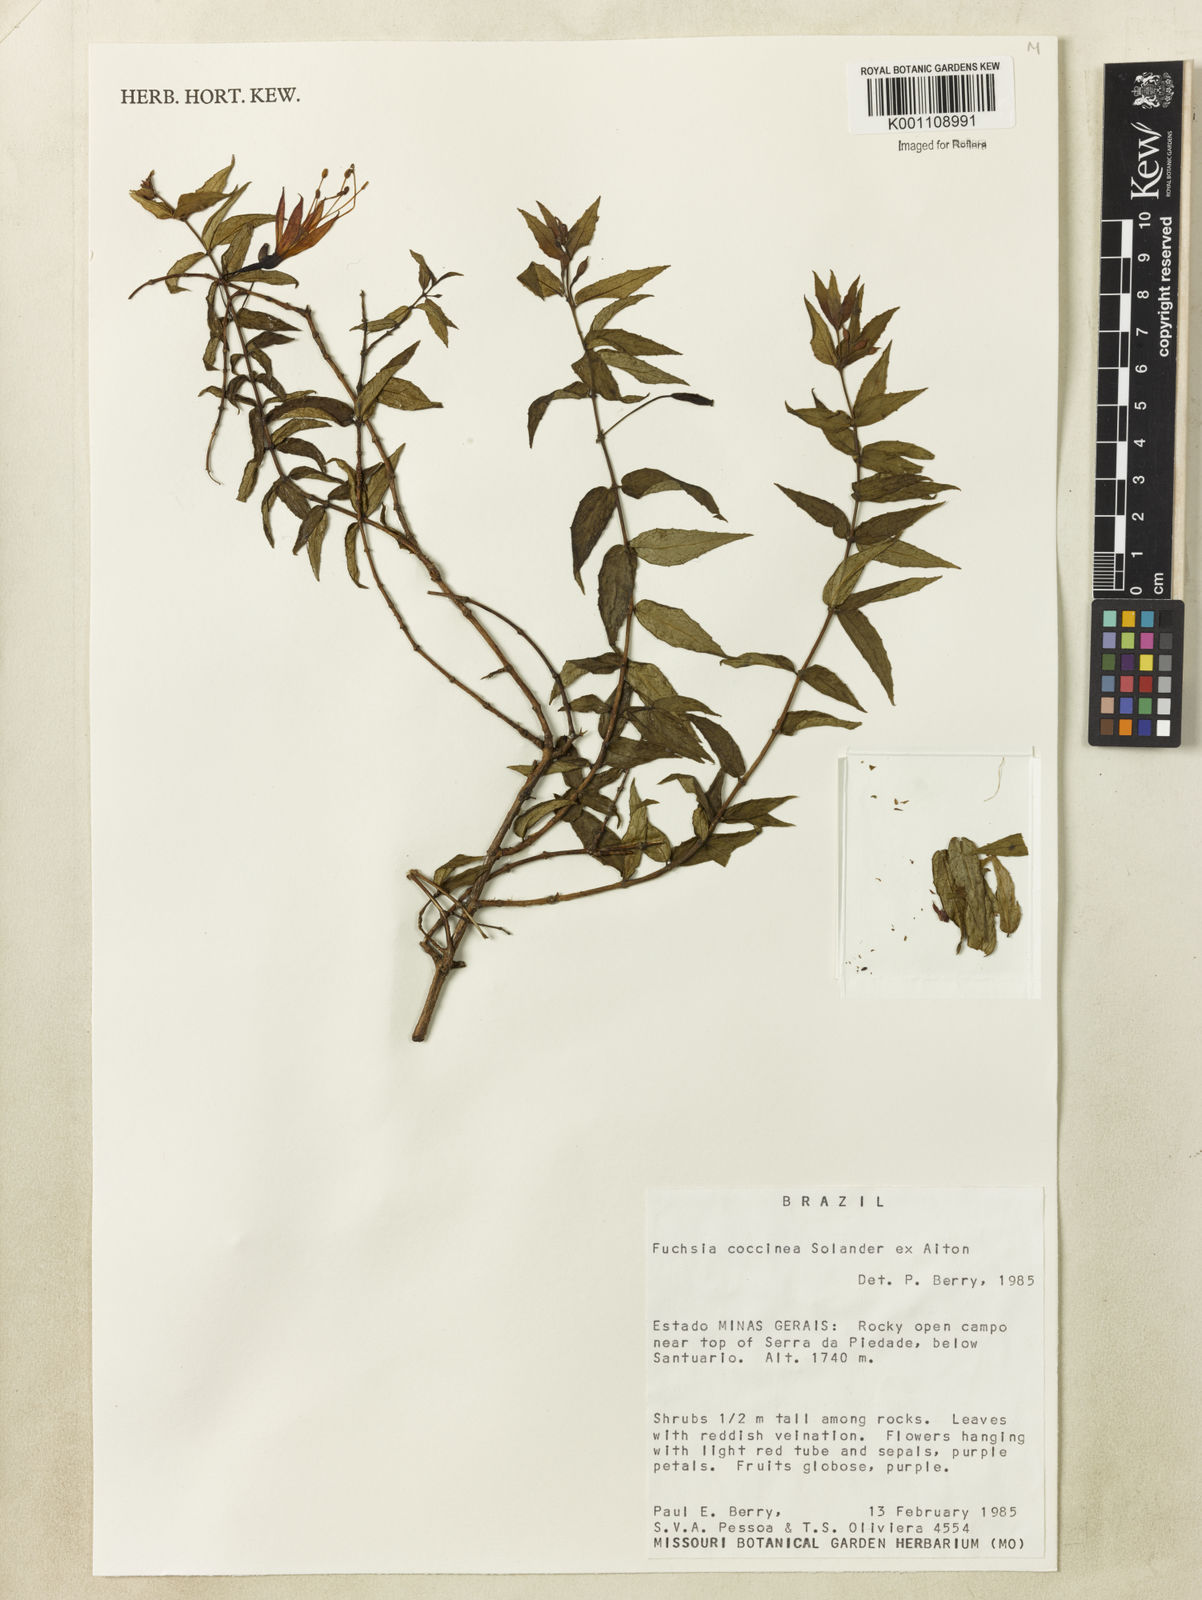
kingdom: Plantae
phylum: Tracheophyta
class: Magnoliopsida
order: Myrtales
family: Onagraceae
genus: Fuchsia
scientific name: Fuchsia
